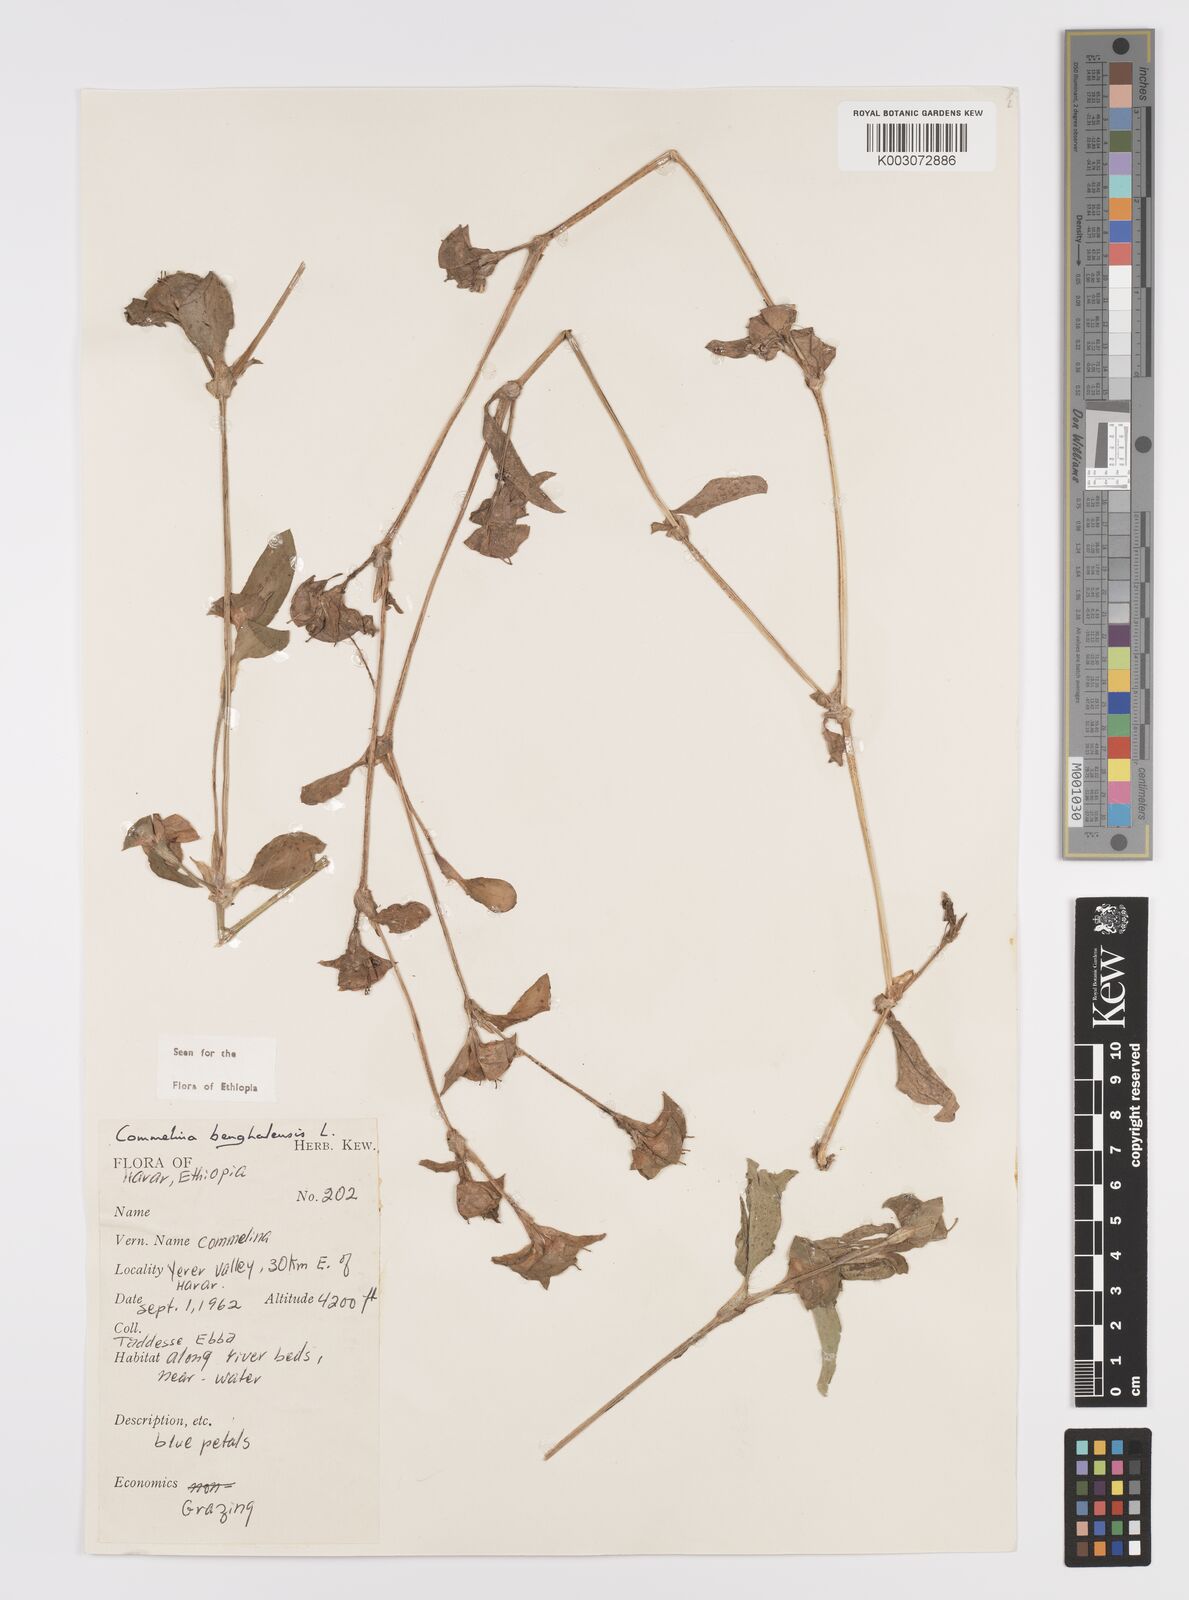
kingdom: Plantae
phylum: Tracheophyta
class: Liliopsida
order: Commelinales
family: Commelinaceae
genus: Commelina
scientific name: Commelina benghalensis
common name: Jio
